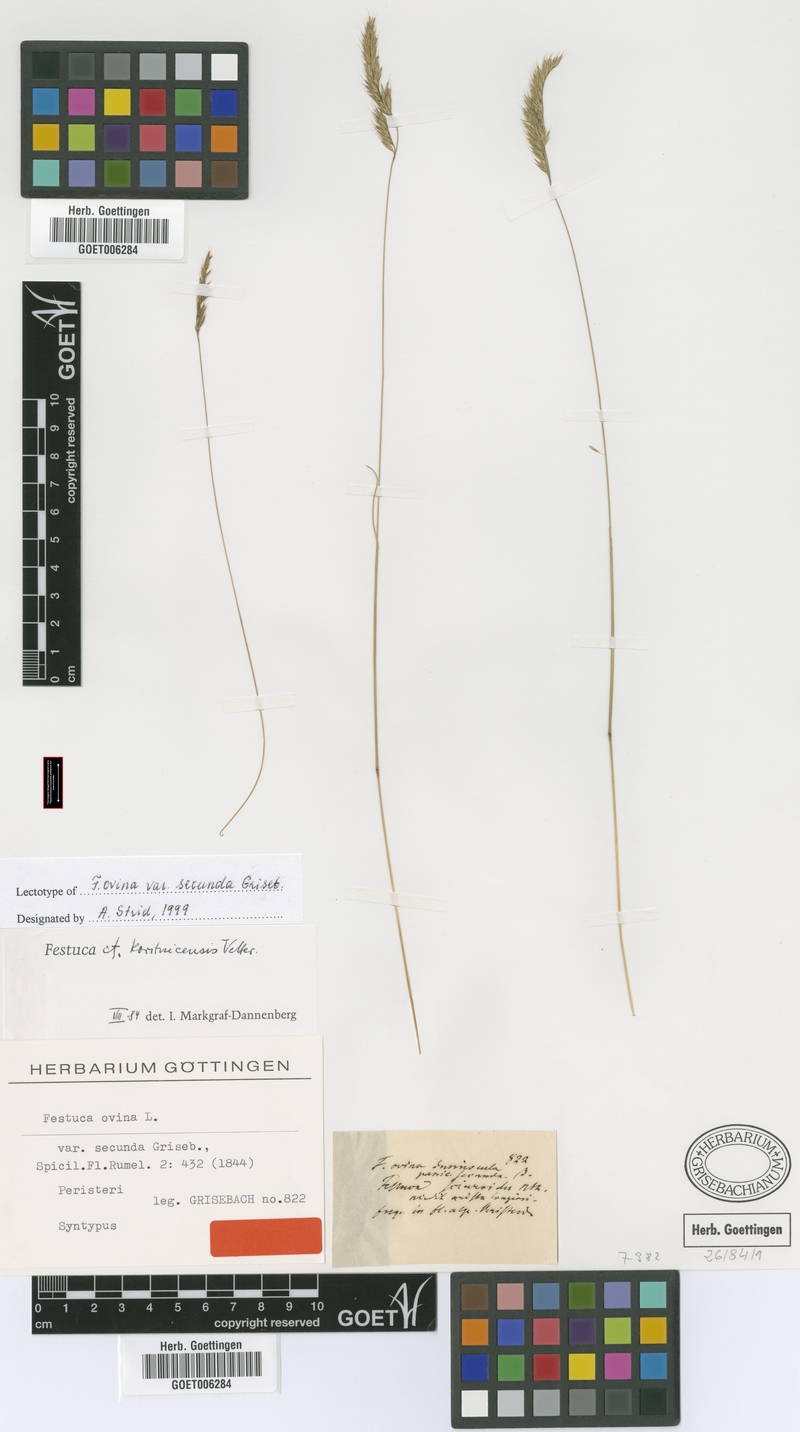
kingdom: Plantae
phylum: Tracheophyta
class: Liliopsida
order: Poales
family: Poaceae
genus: Festuca
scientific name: Festuca koritnicensis
